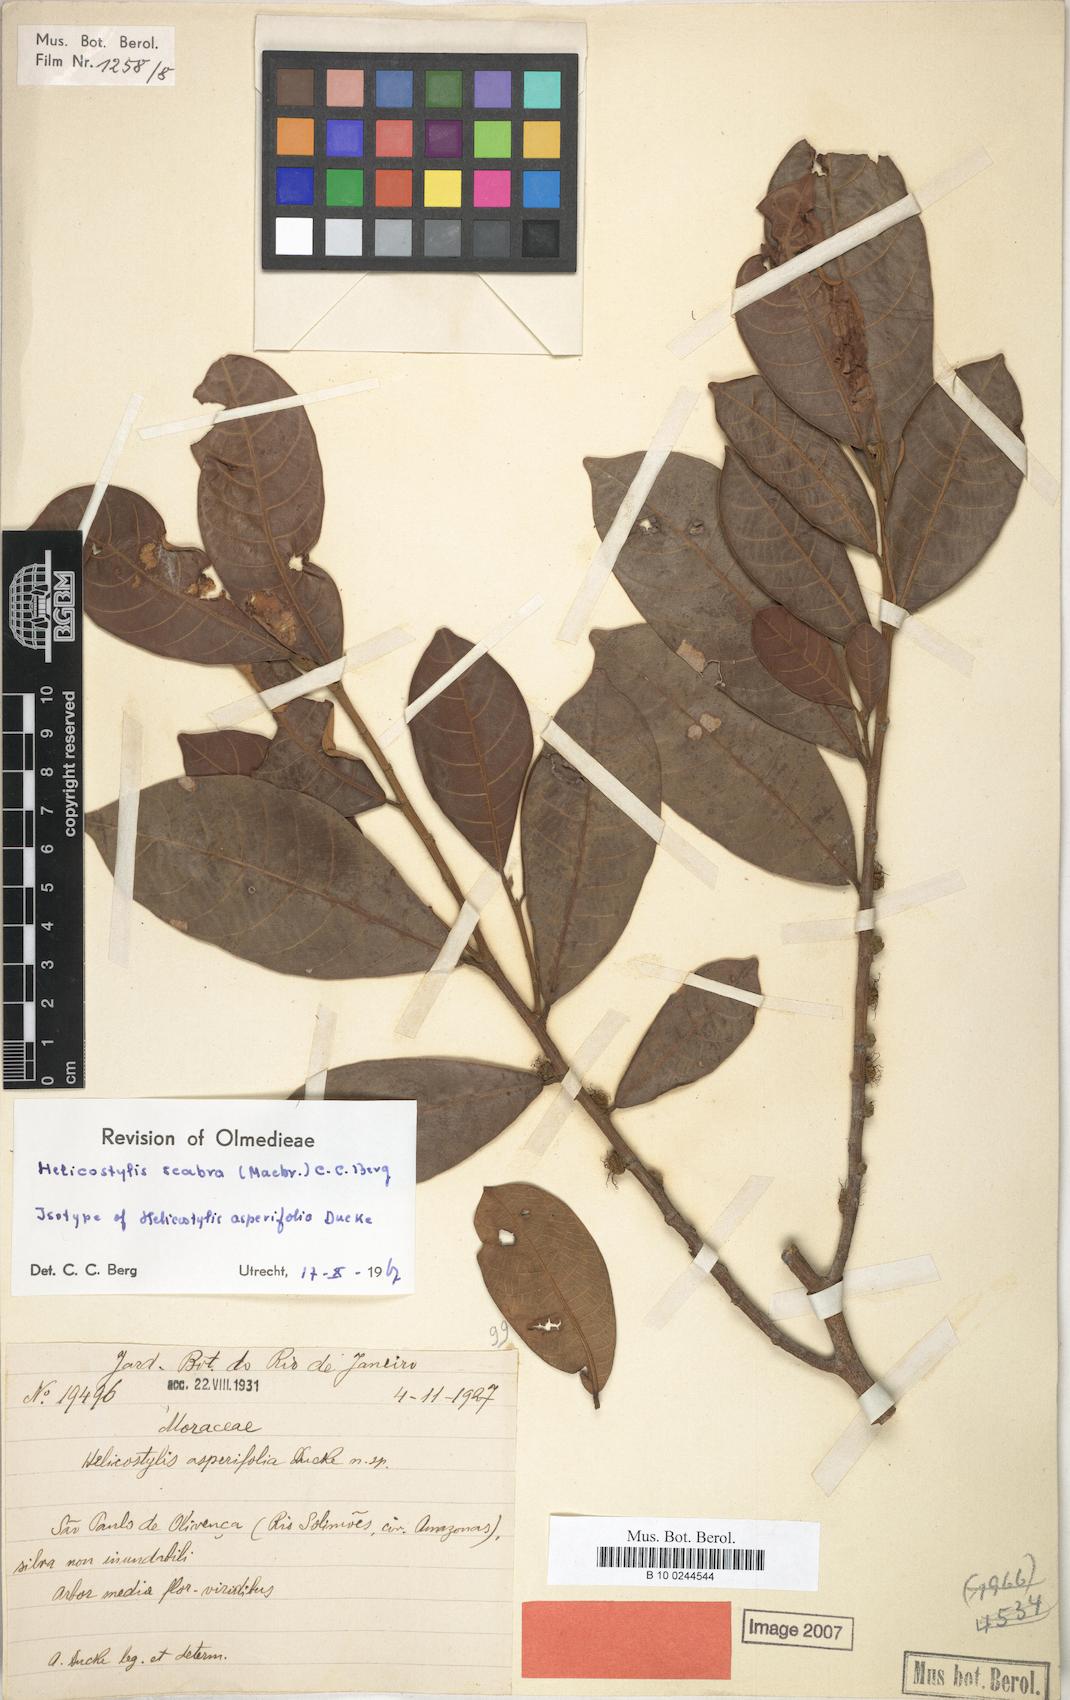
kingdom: Plantae
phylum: Tracheophyta
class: Magnoliopsida
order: Rosales
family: Moraceae
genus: Helicostylis
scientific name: Helicostylis scabra
